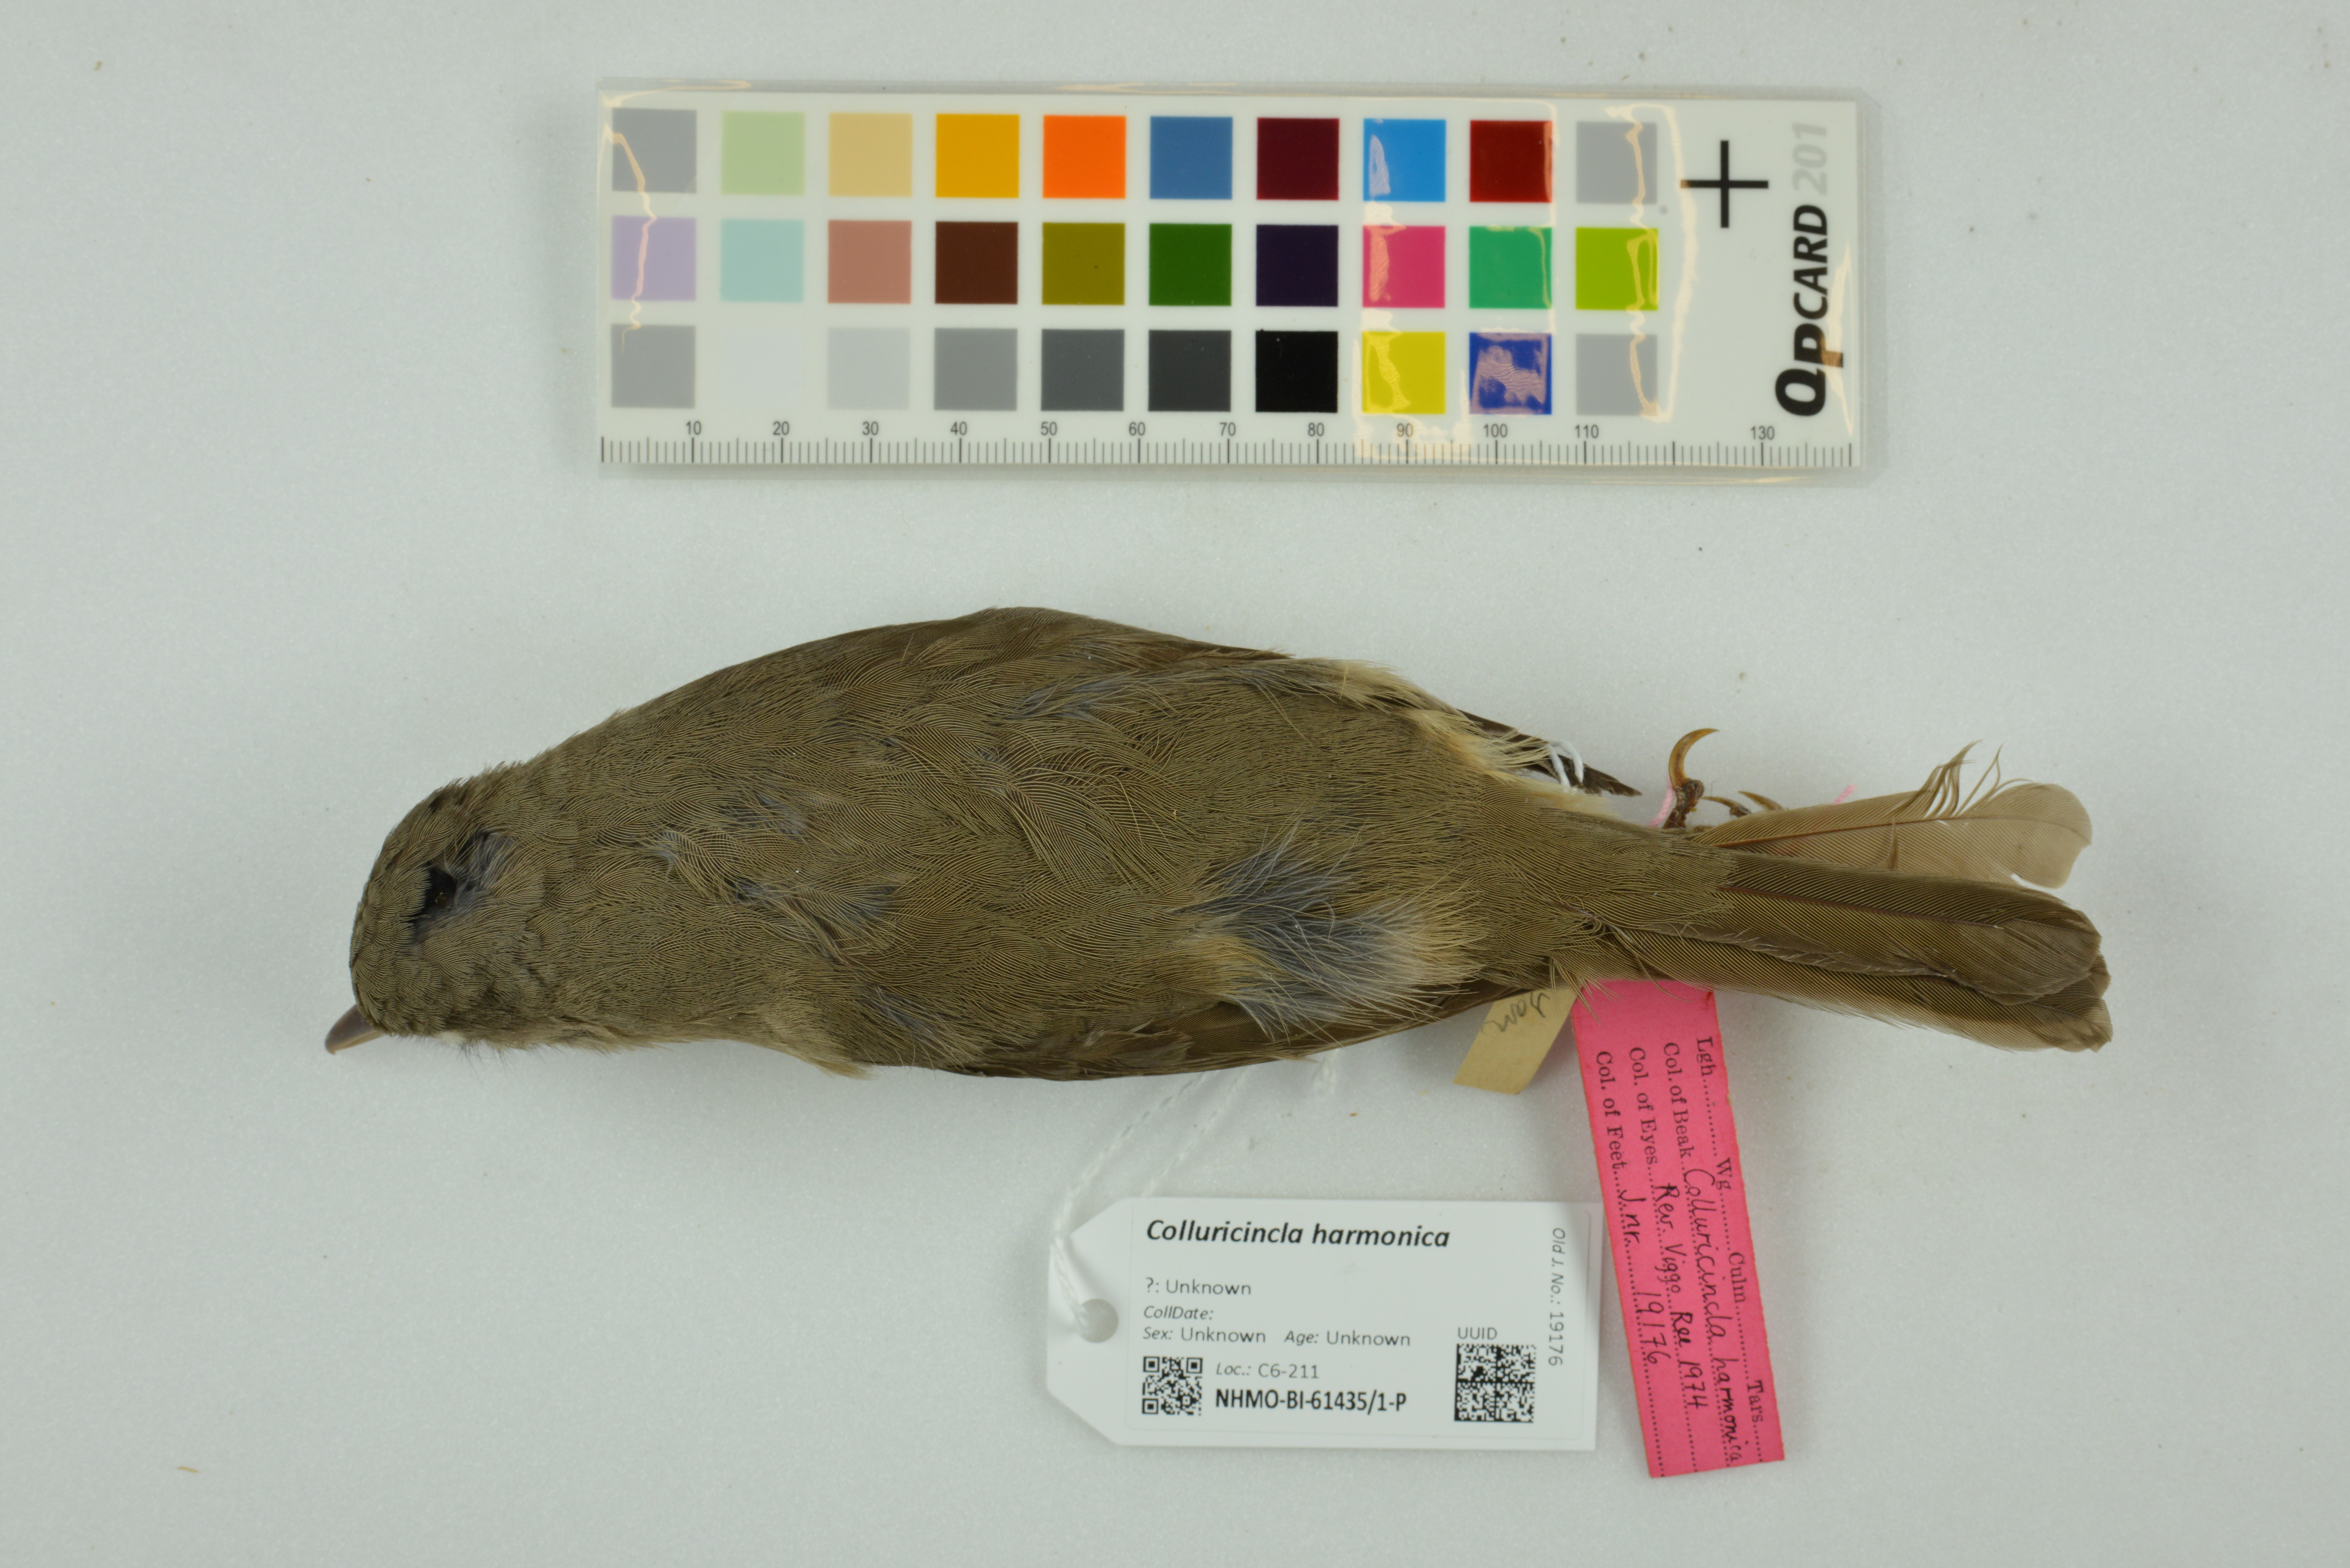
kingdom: Animalia
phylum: Chordata
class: Aves
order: Passeriformes
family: Pachycephalidae
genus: Colluricincla
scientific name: Colluricincla harmonica
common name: Grey shrikethrush
